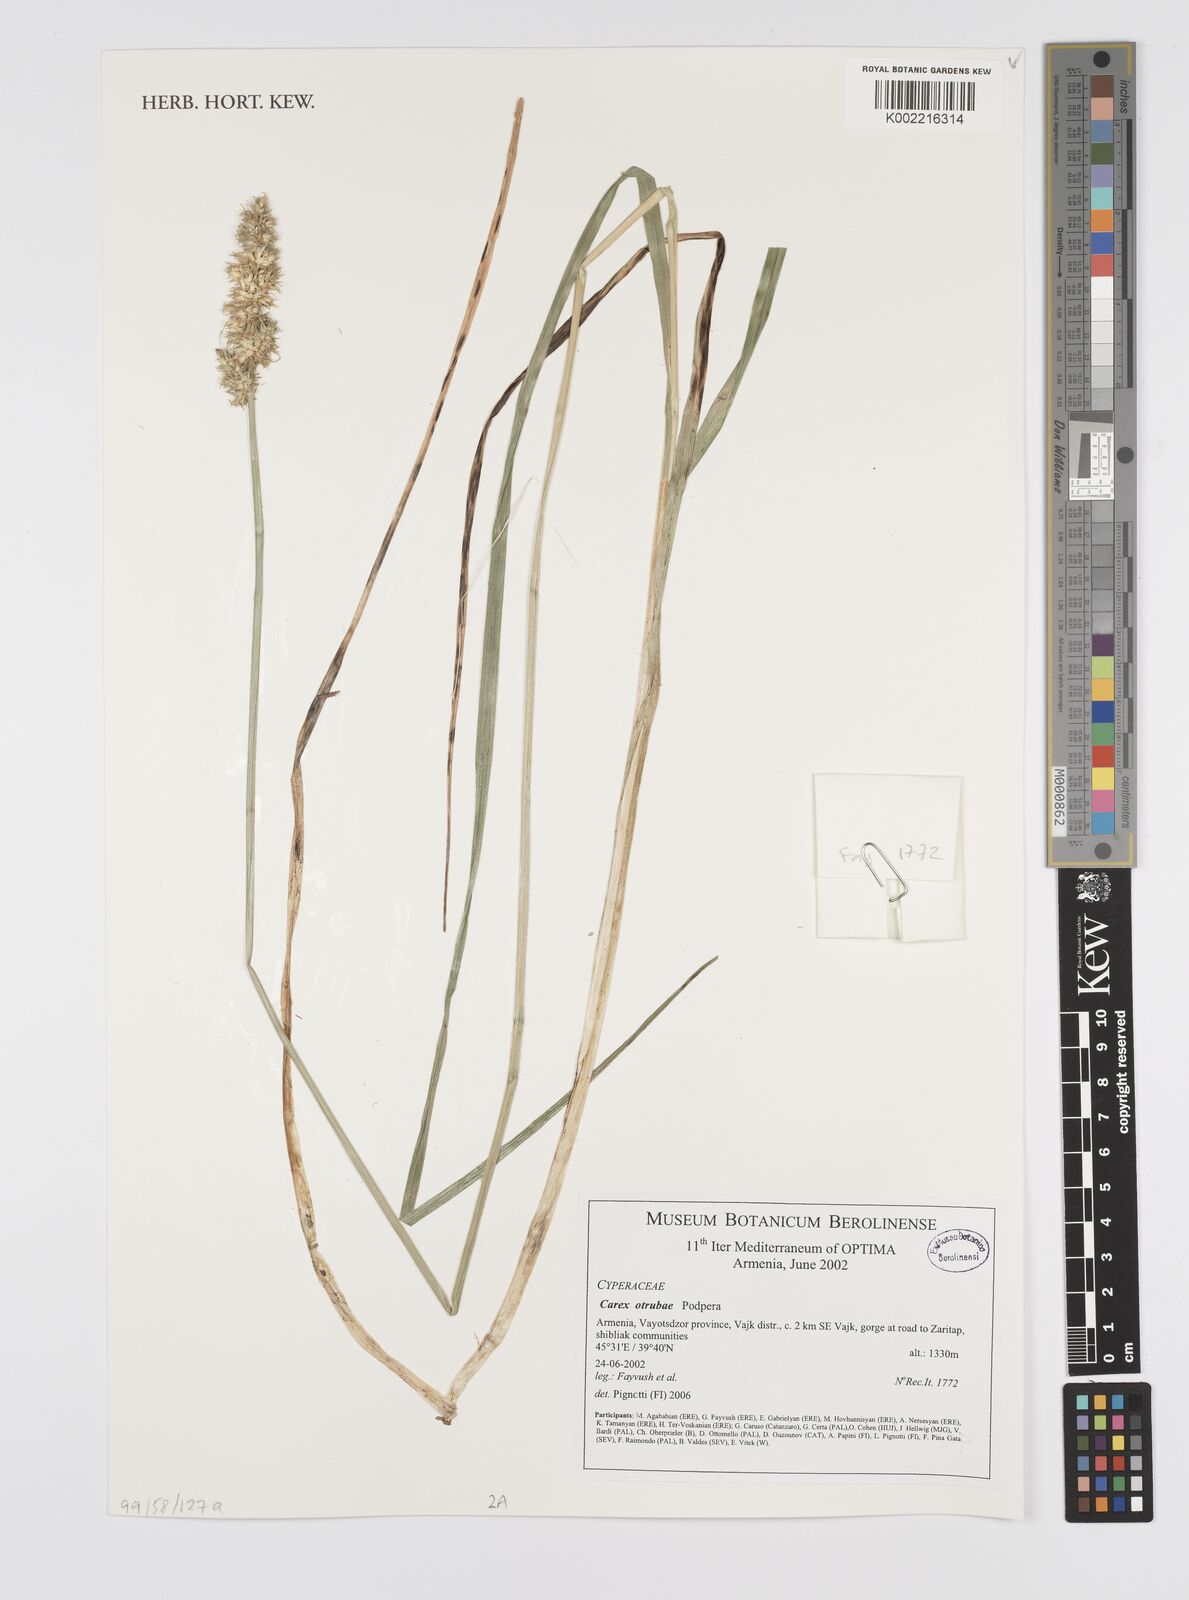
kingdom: Plantae
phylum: Tracheophyta
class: Liliopsida
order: Poales
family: Cyperaceae
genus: Carex
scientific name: Carex otrubae
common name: False fox-sedge
